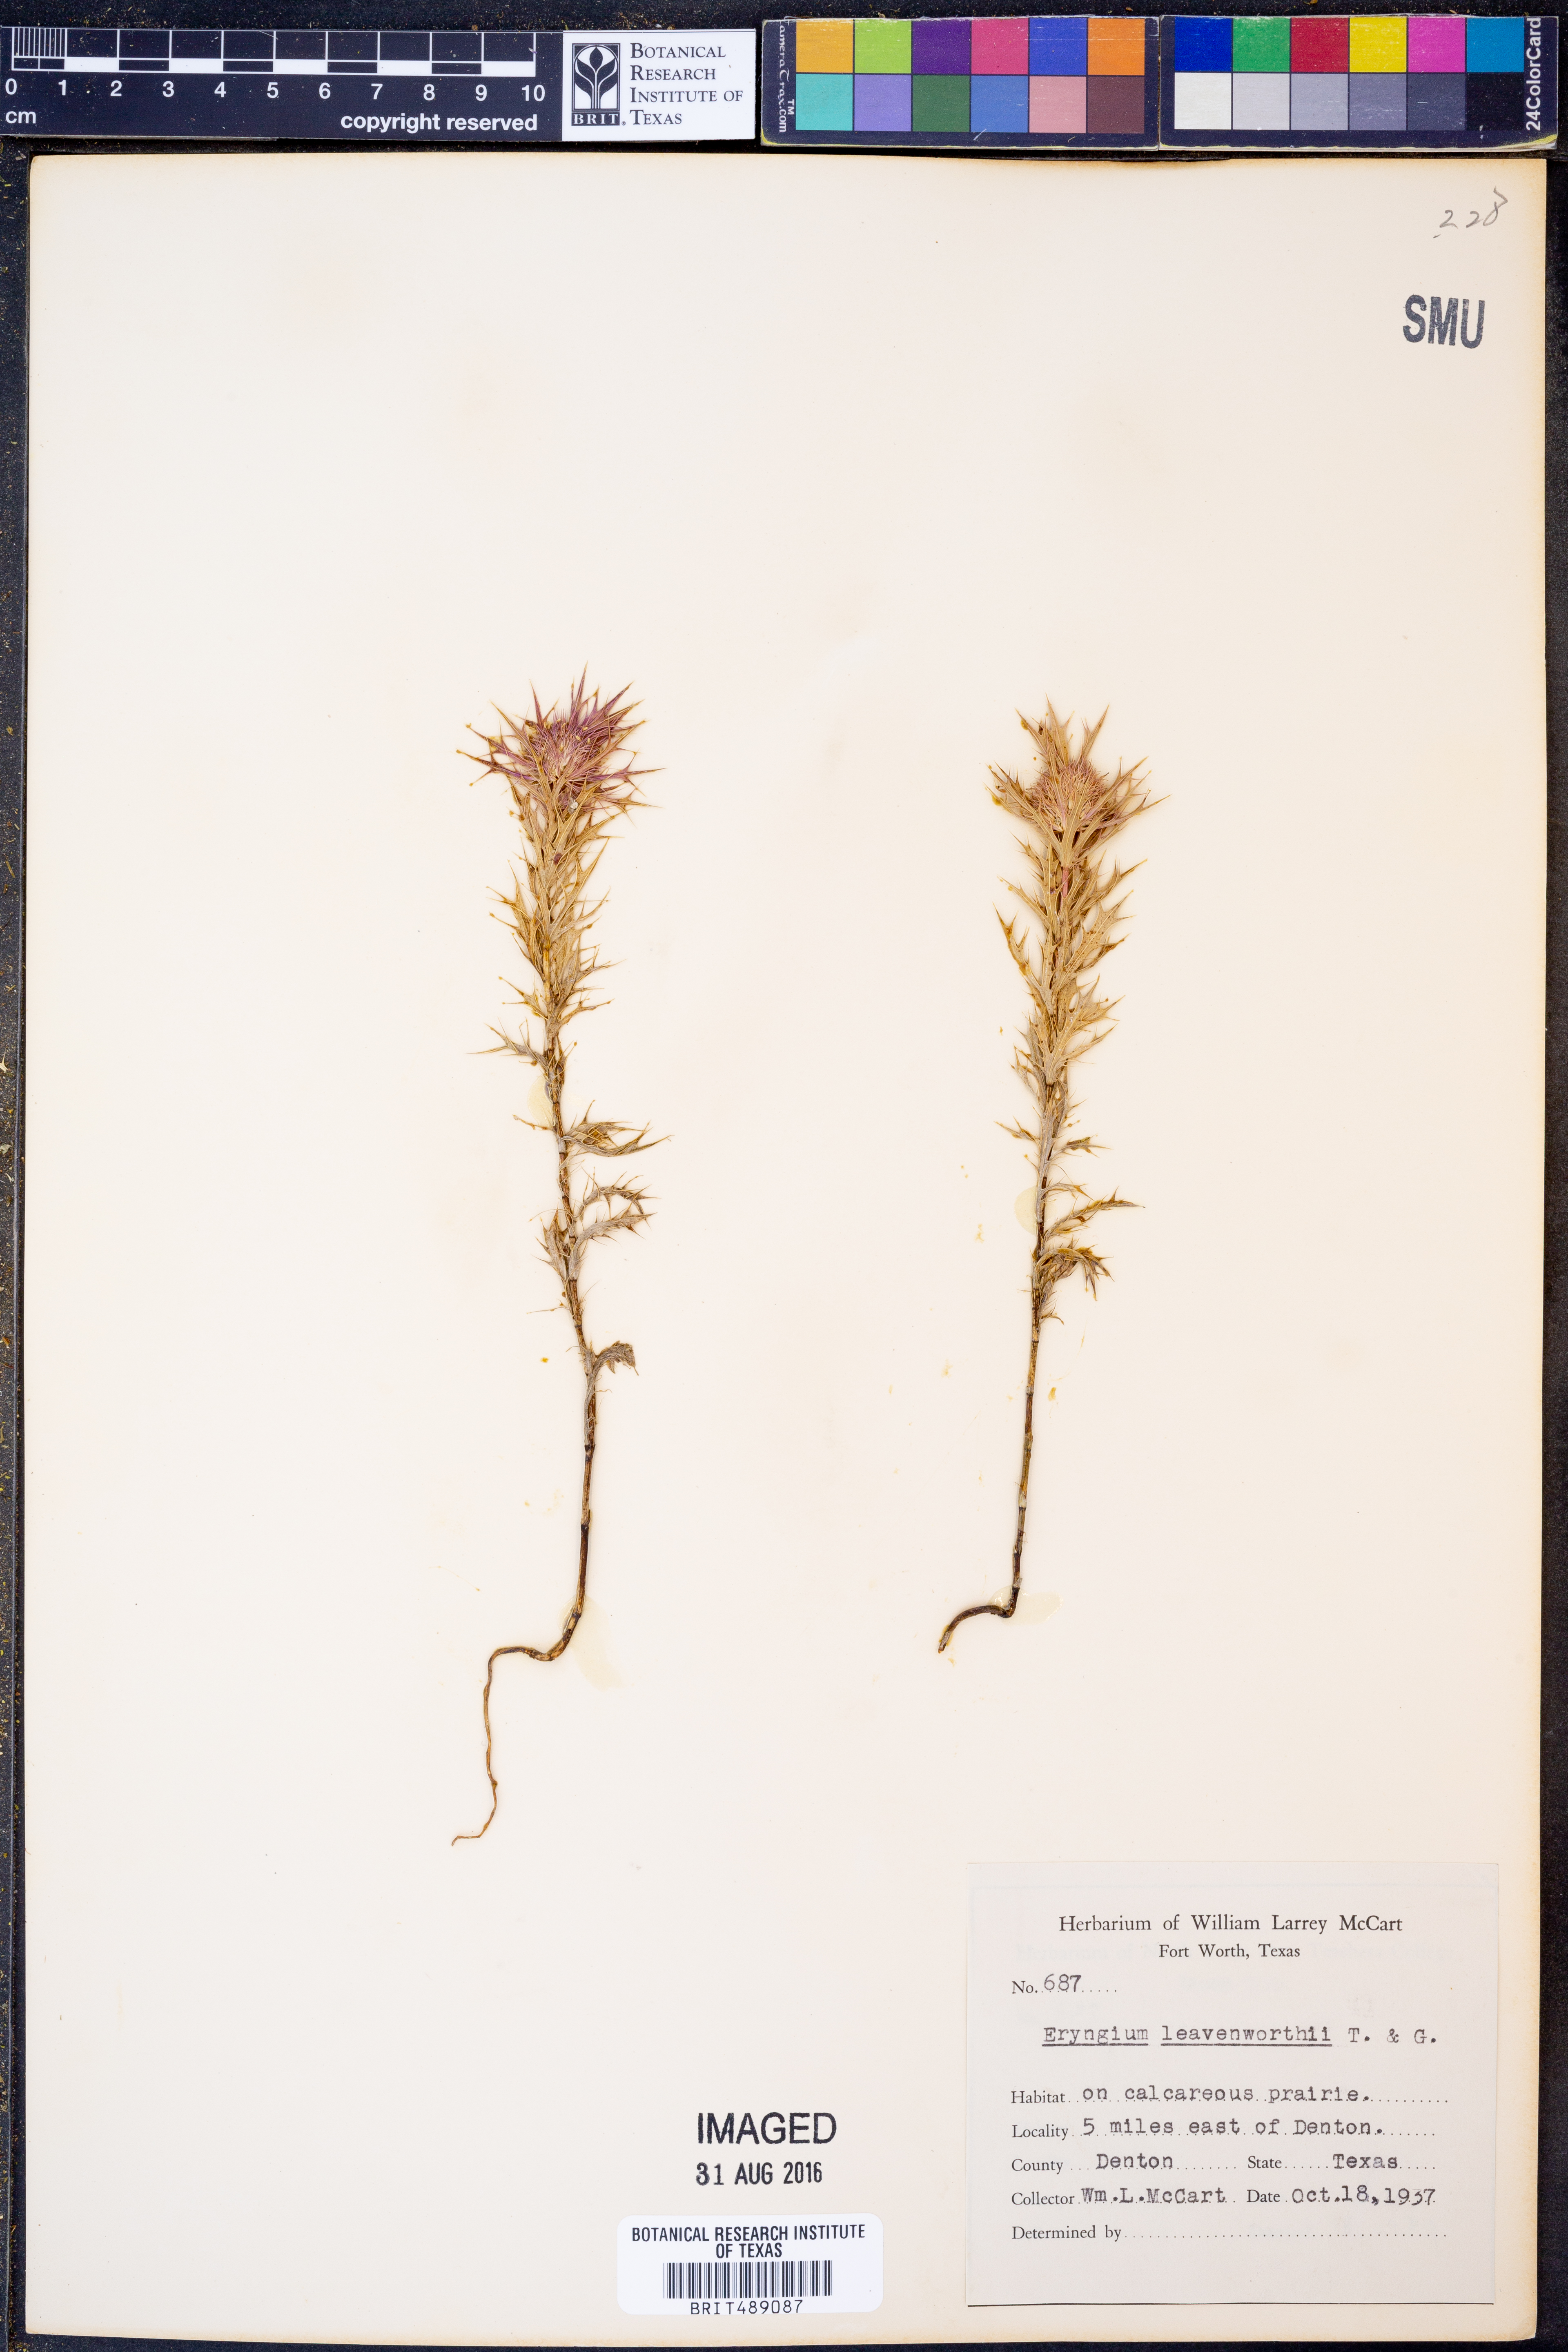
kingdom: Plantae
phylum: Tracheophyta
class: Magnoliopsida
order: Apiales
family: Apiaceae
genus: Eryngium
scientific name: Eryngium leavenworthii
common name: Leavenworth's eryngo
